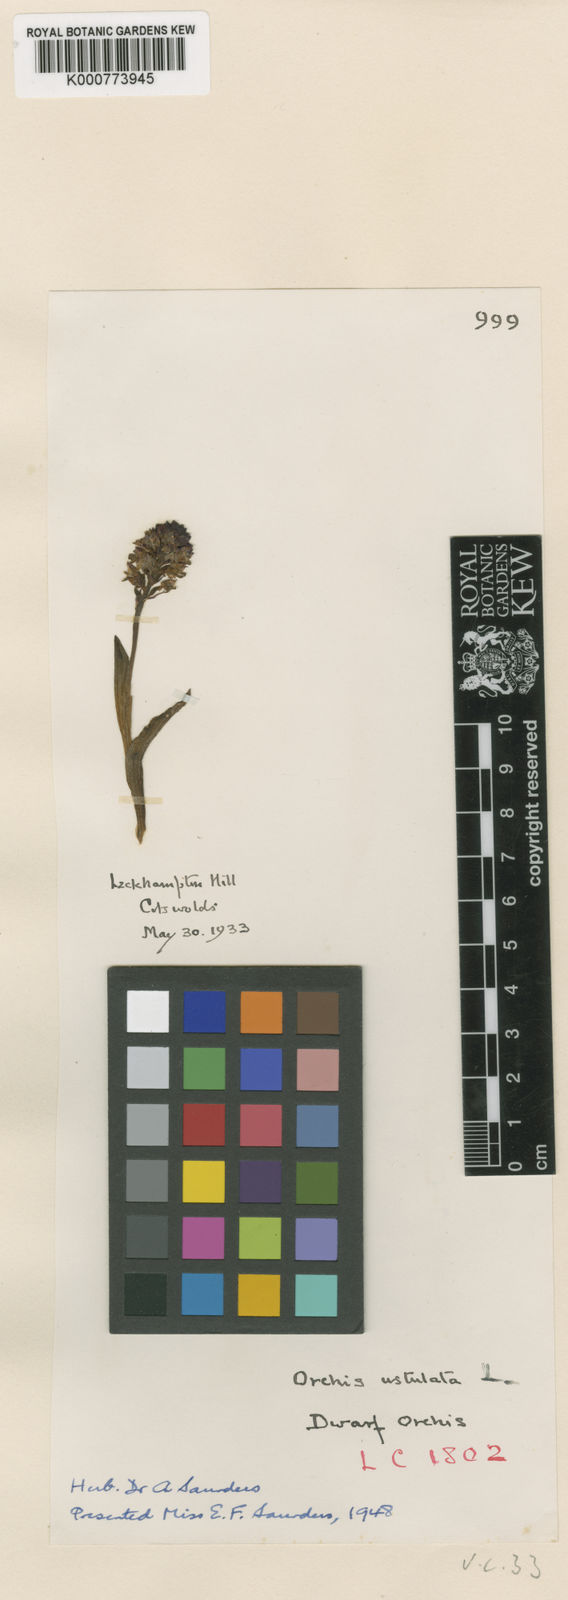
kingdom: Plantae
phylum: Tracheophyta
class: Liliopsida
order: Asparagales
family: Orchidaceae
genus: Neotinea
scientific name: Neotinea ustulata
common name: Burnt orchid
